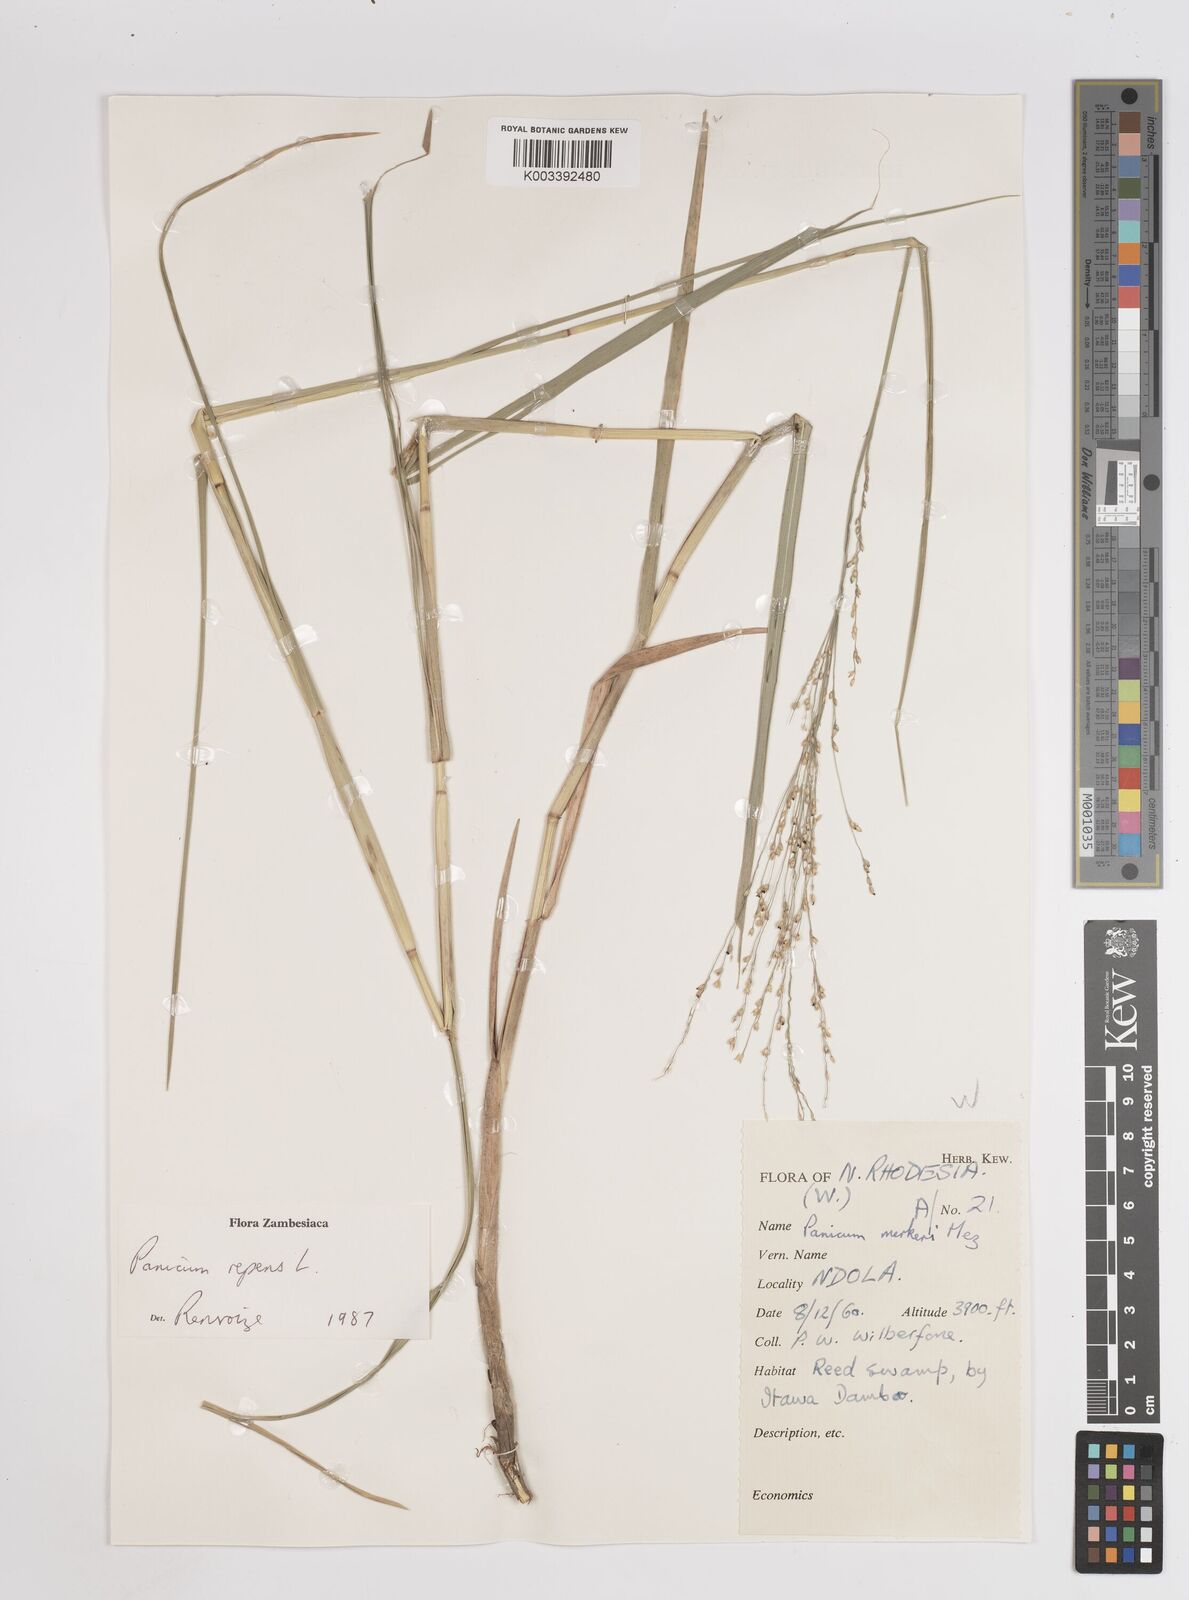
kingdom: Plantae
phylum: Tracheophyta
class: Liliopsida
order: Poales
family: Poaceae
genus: Panicum
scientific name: Panicum repens
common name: Torpedo grass
